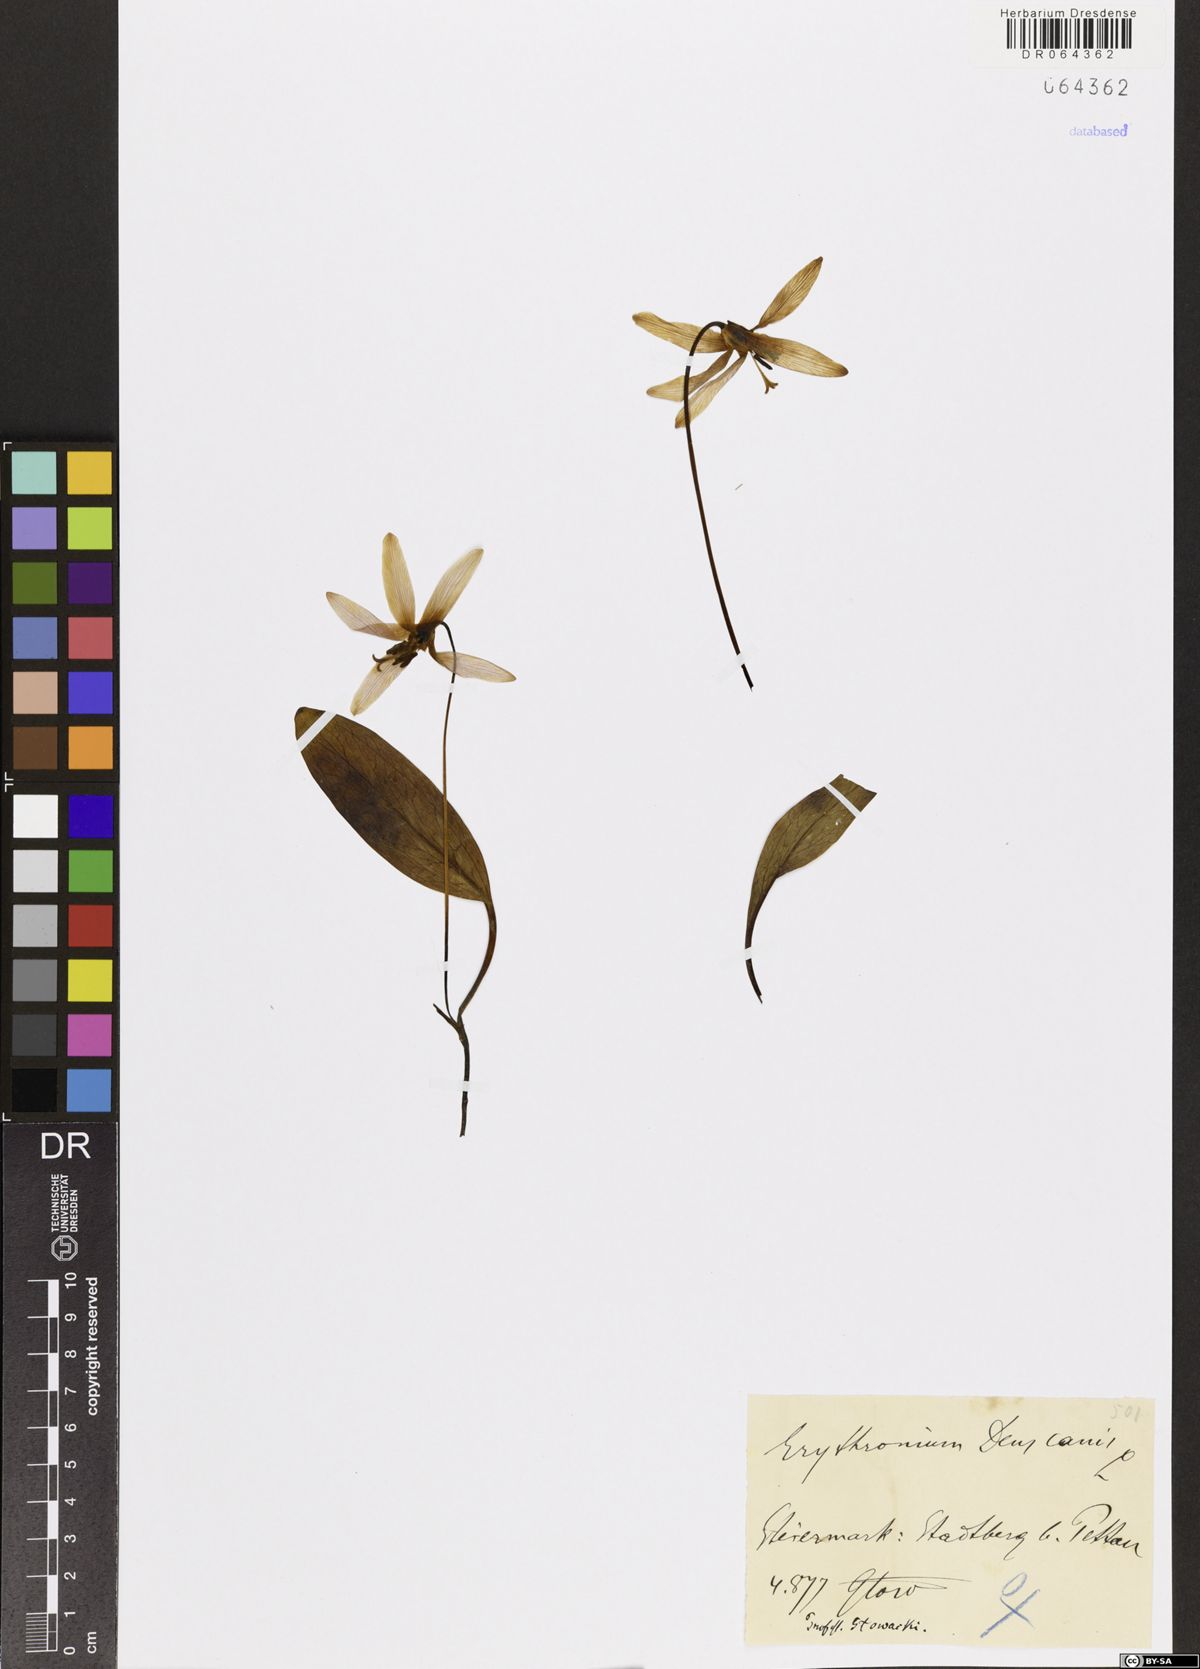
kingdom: Plantae
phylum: Tracheophyta
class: Liliopsida
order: Liliales
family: Liliaceae
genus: Erythronium
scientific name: Erythronium dens-canis
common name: Dog's-tooth-violet
